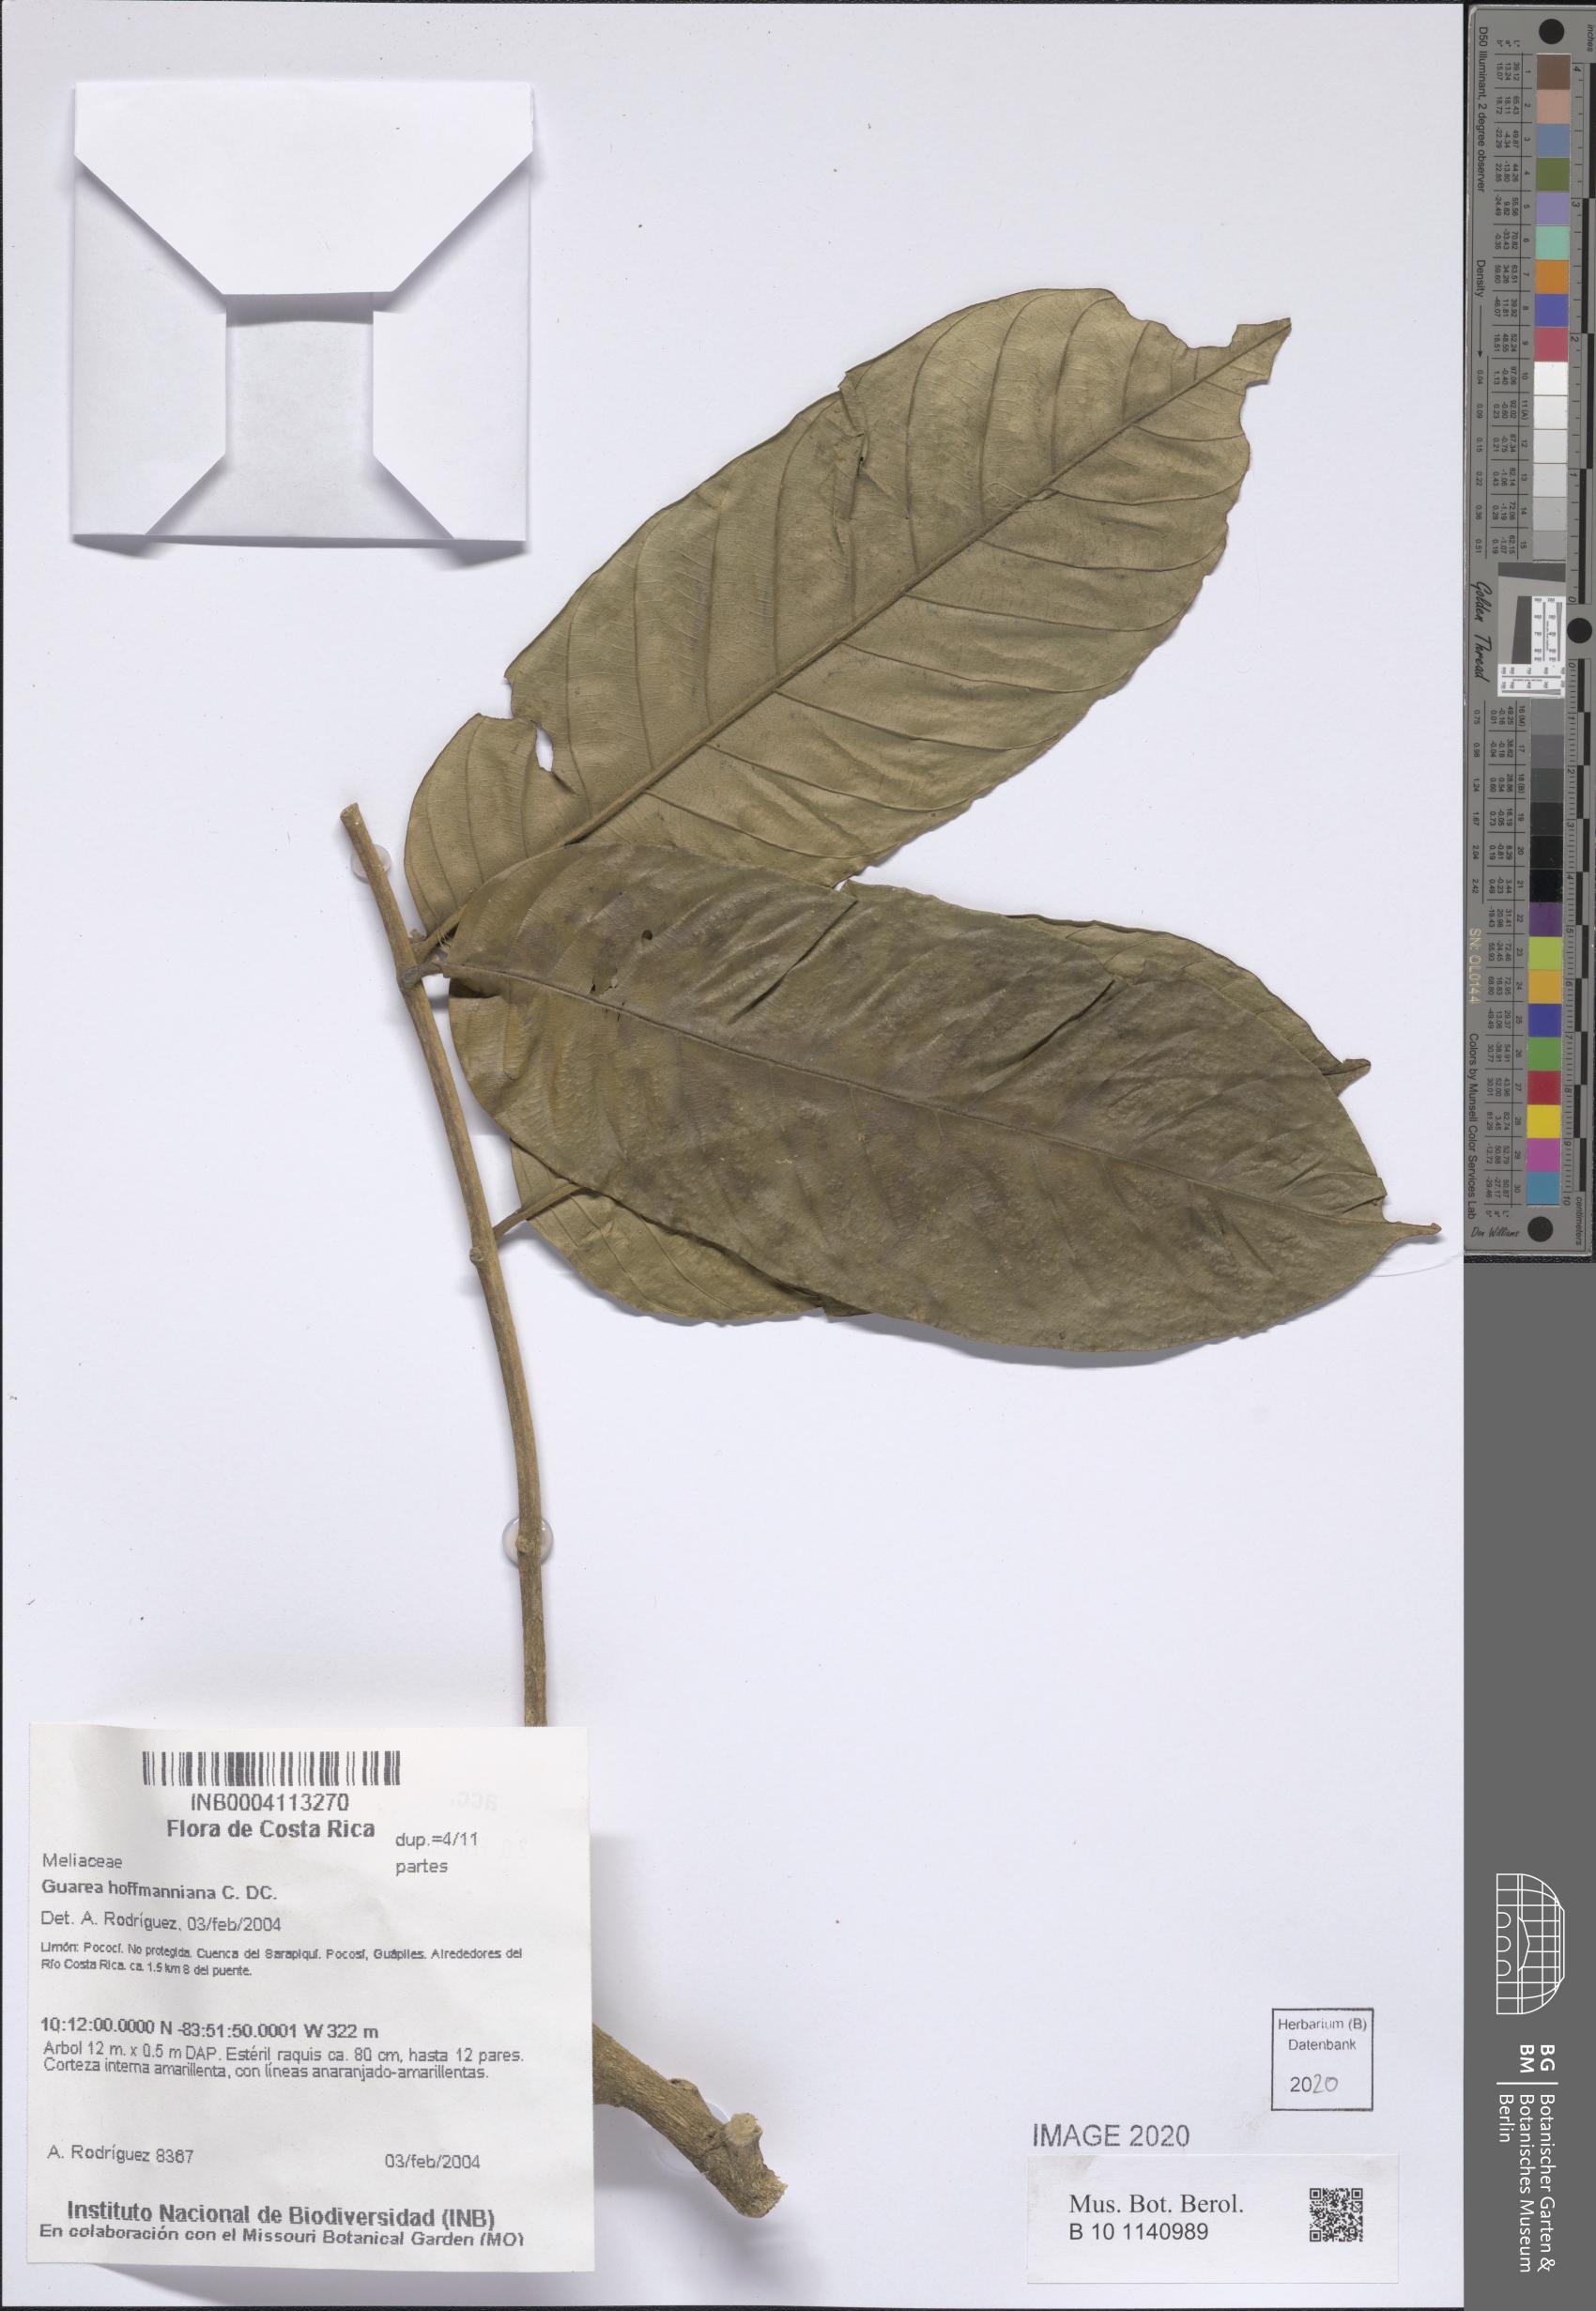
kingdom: Plantae
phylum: Tracheophyta
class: Magnoliopsida
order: Sapindales
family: Meliaceae
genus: Guarea
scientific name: Guarea hoffmanniana
